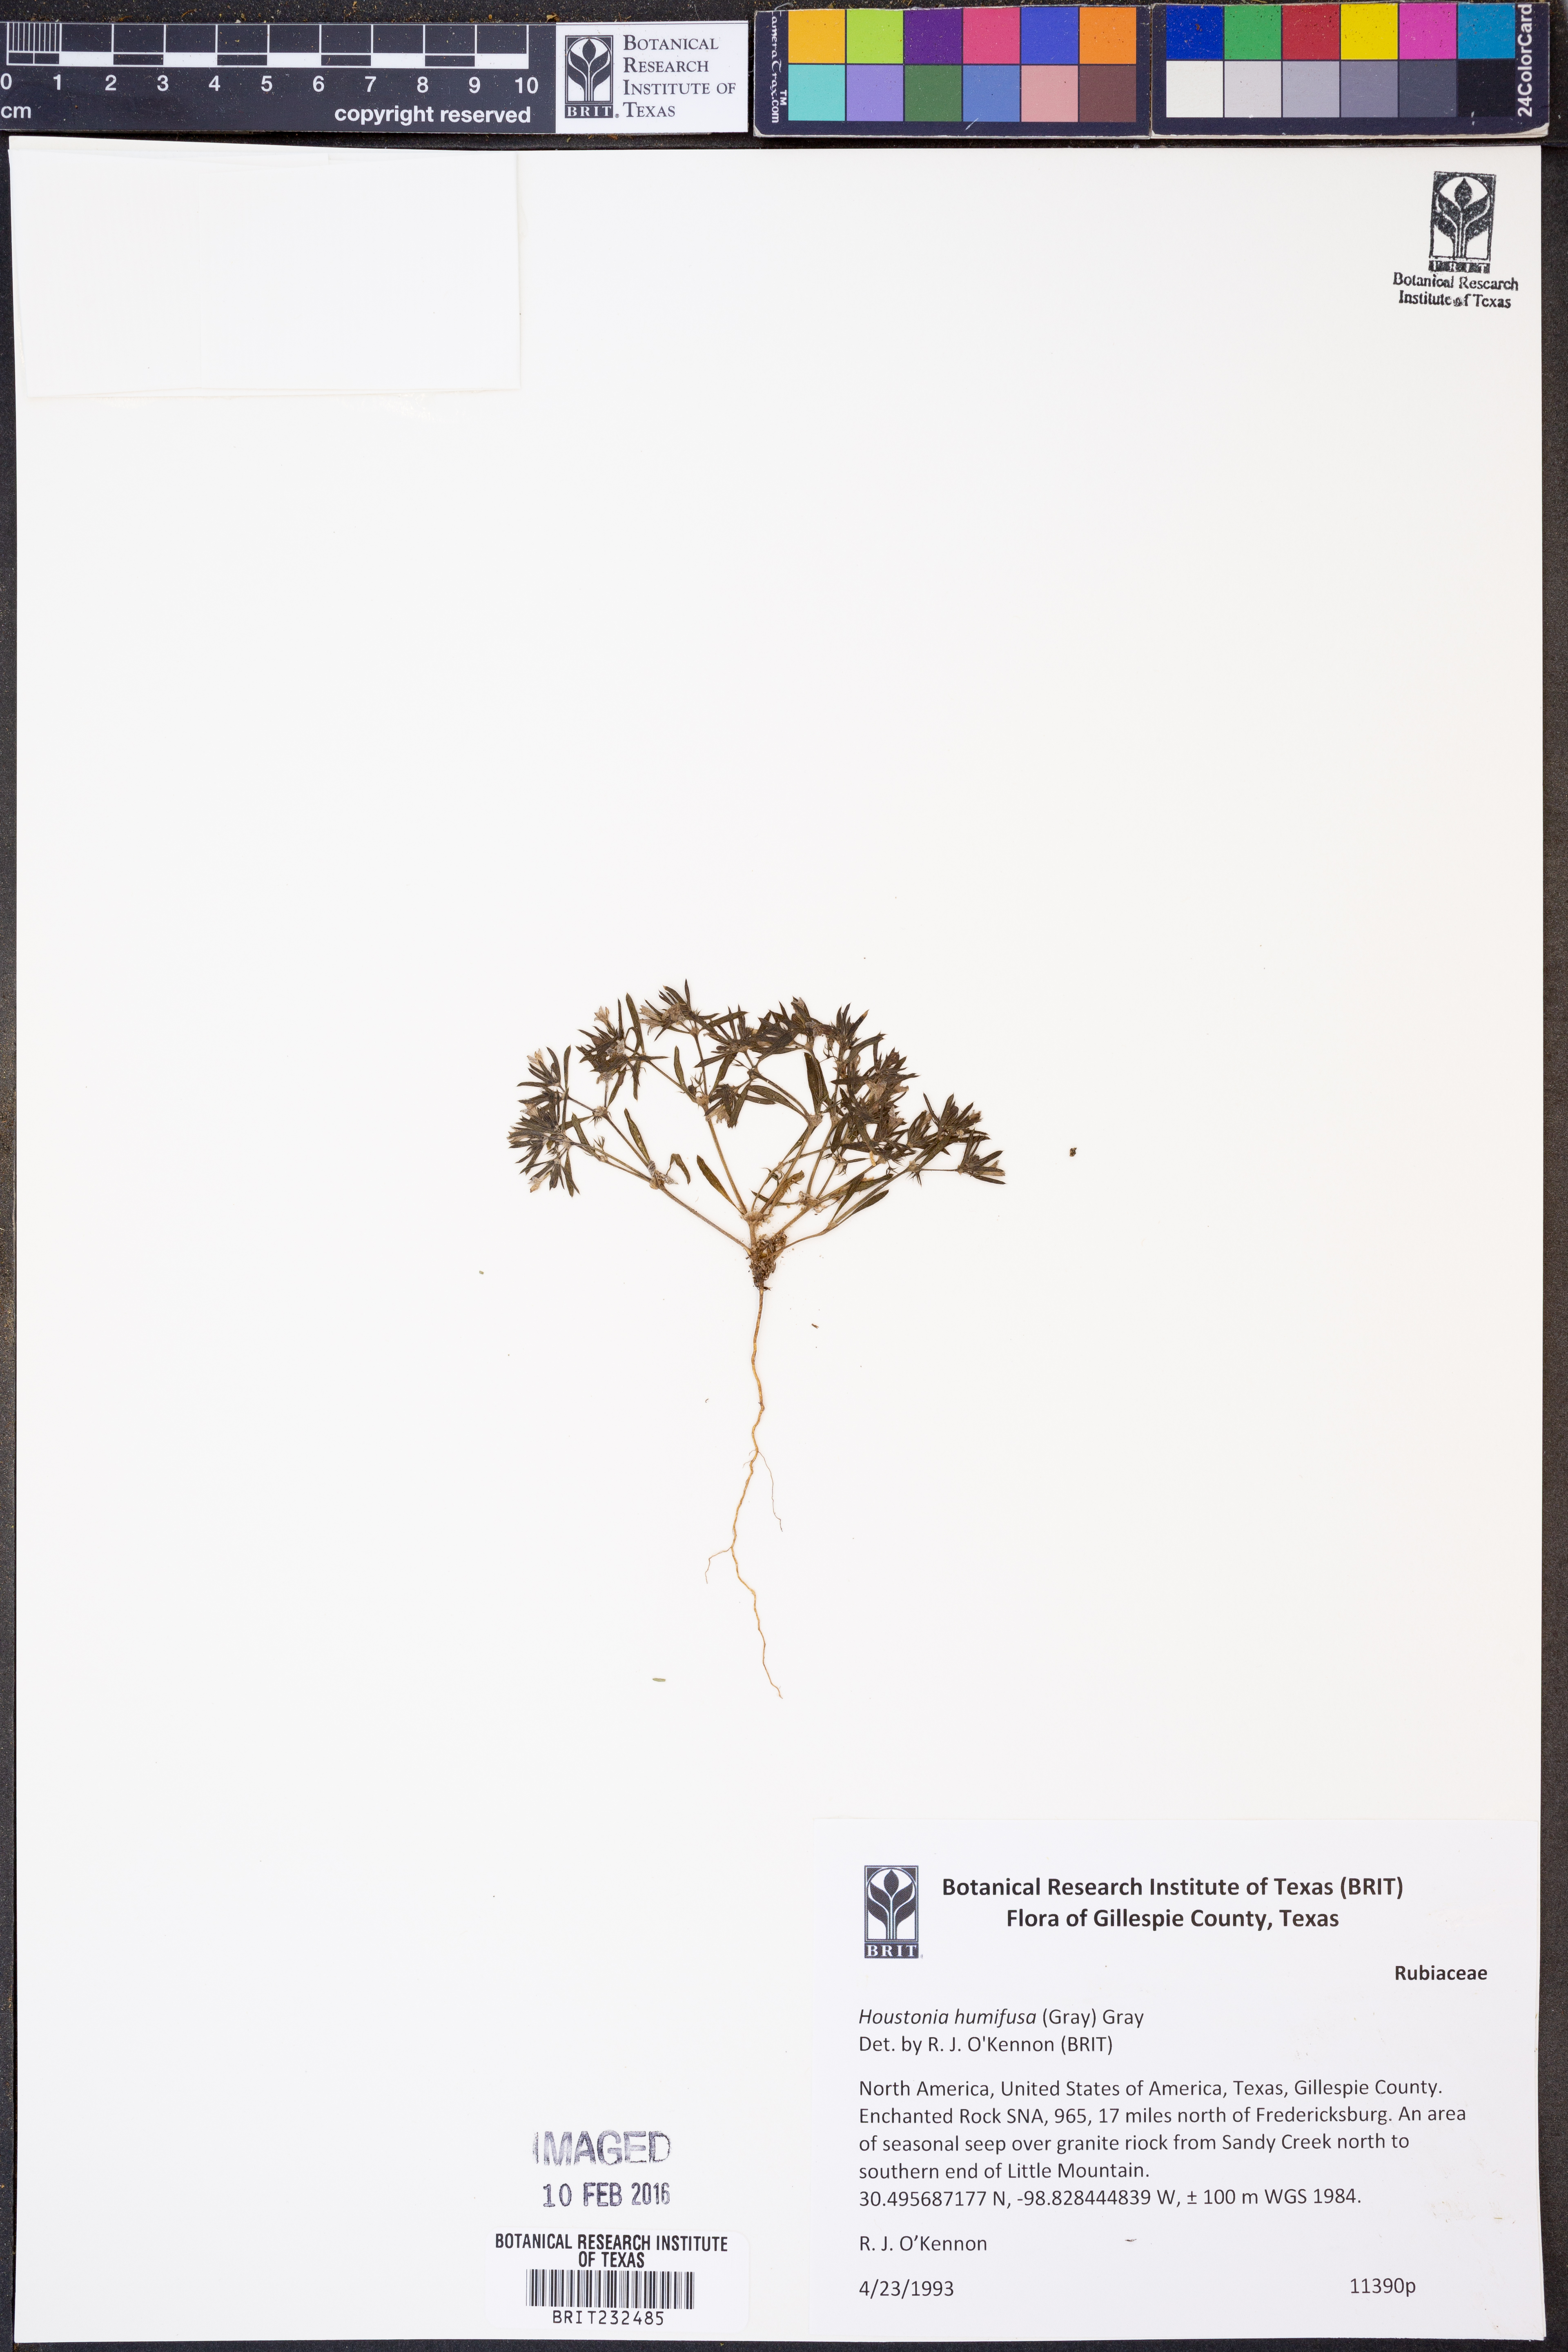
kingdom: Plantae
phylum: Tracheophyta
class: Magnoliopsida
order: Gentianales
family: Rubiaceae
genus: Houstonia
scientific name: Houstonia humifusa
